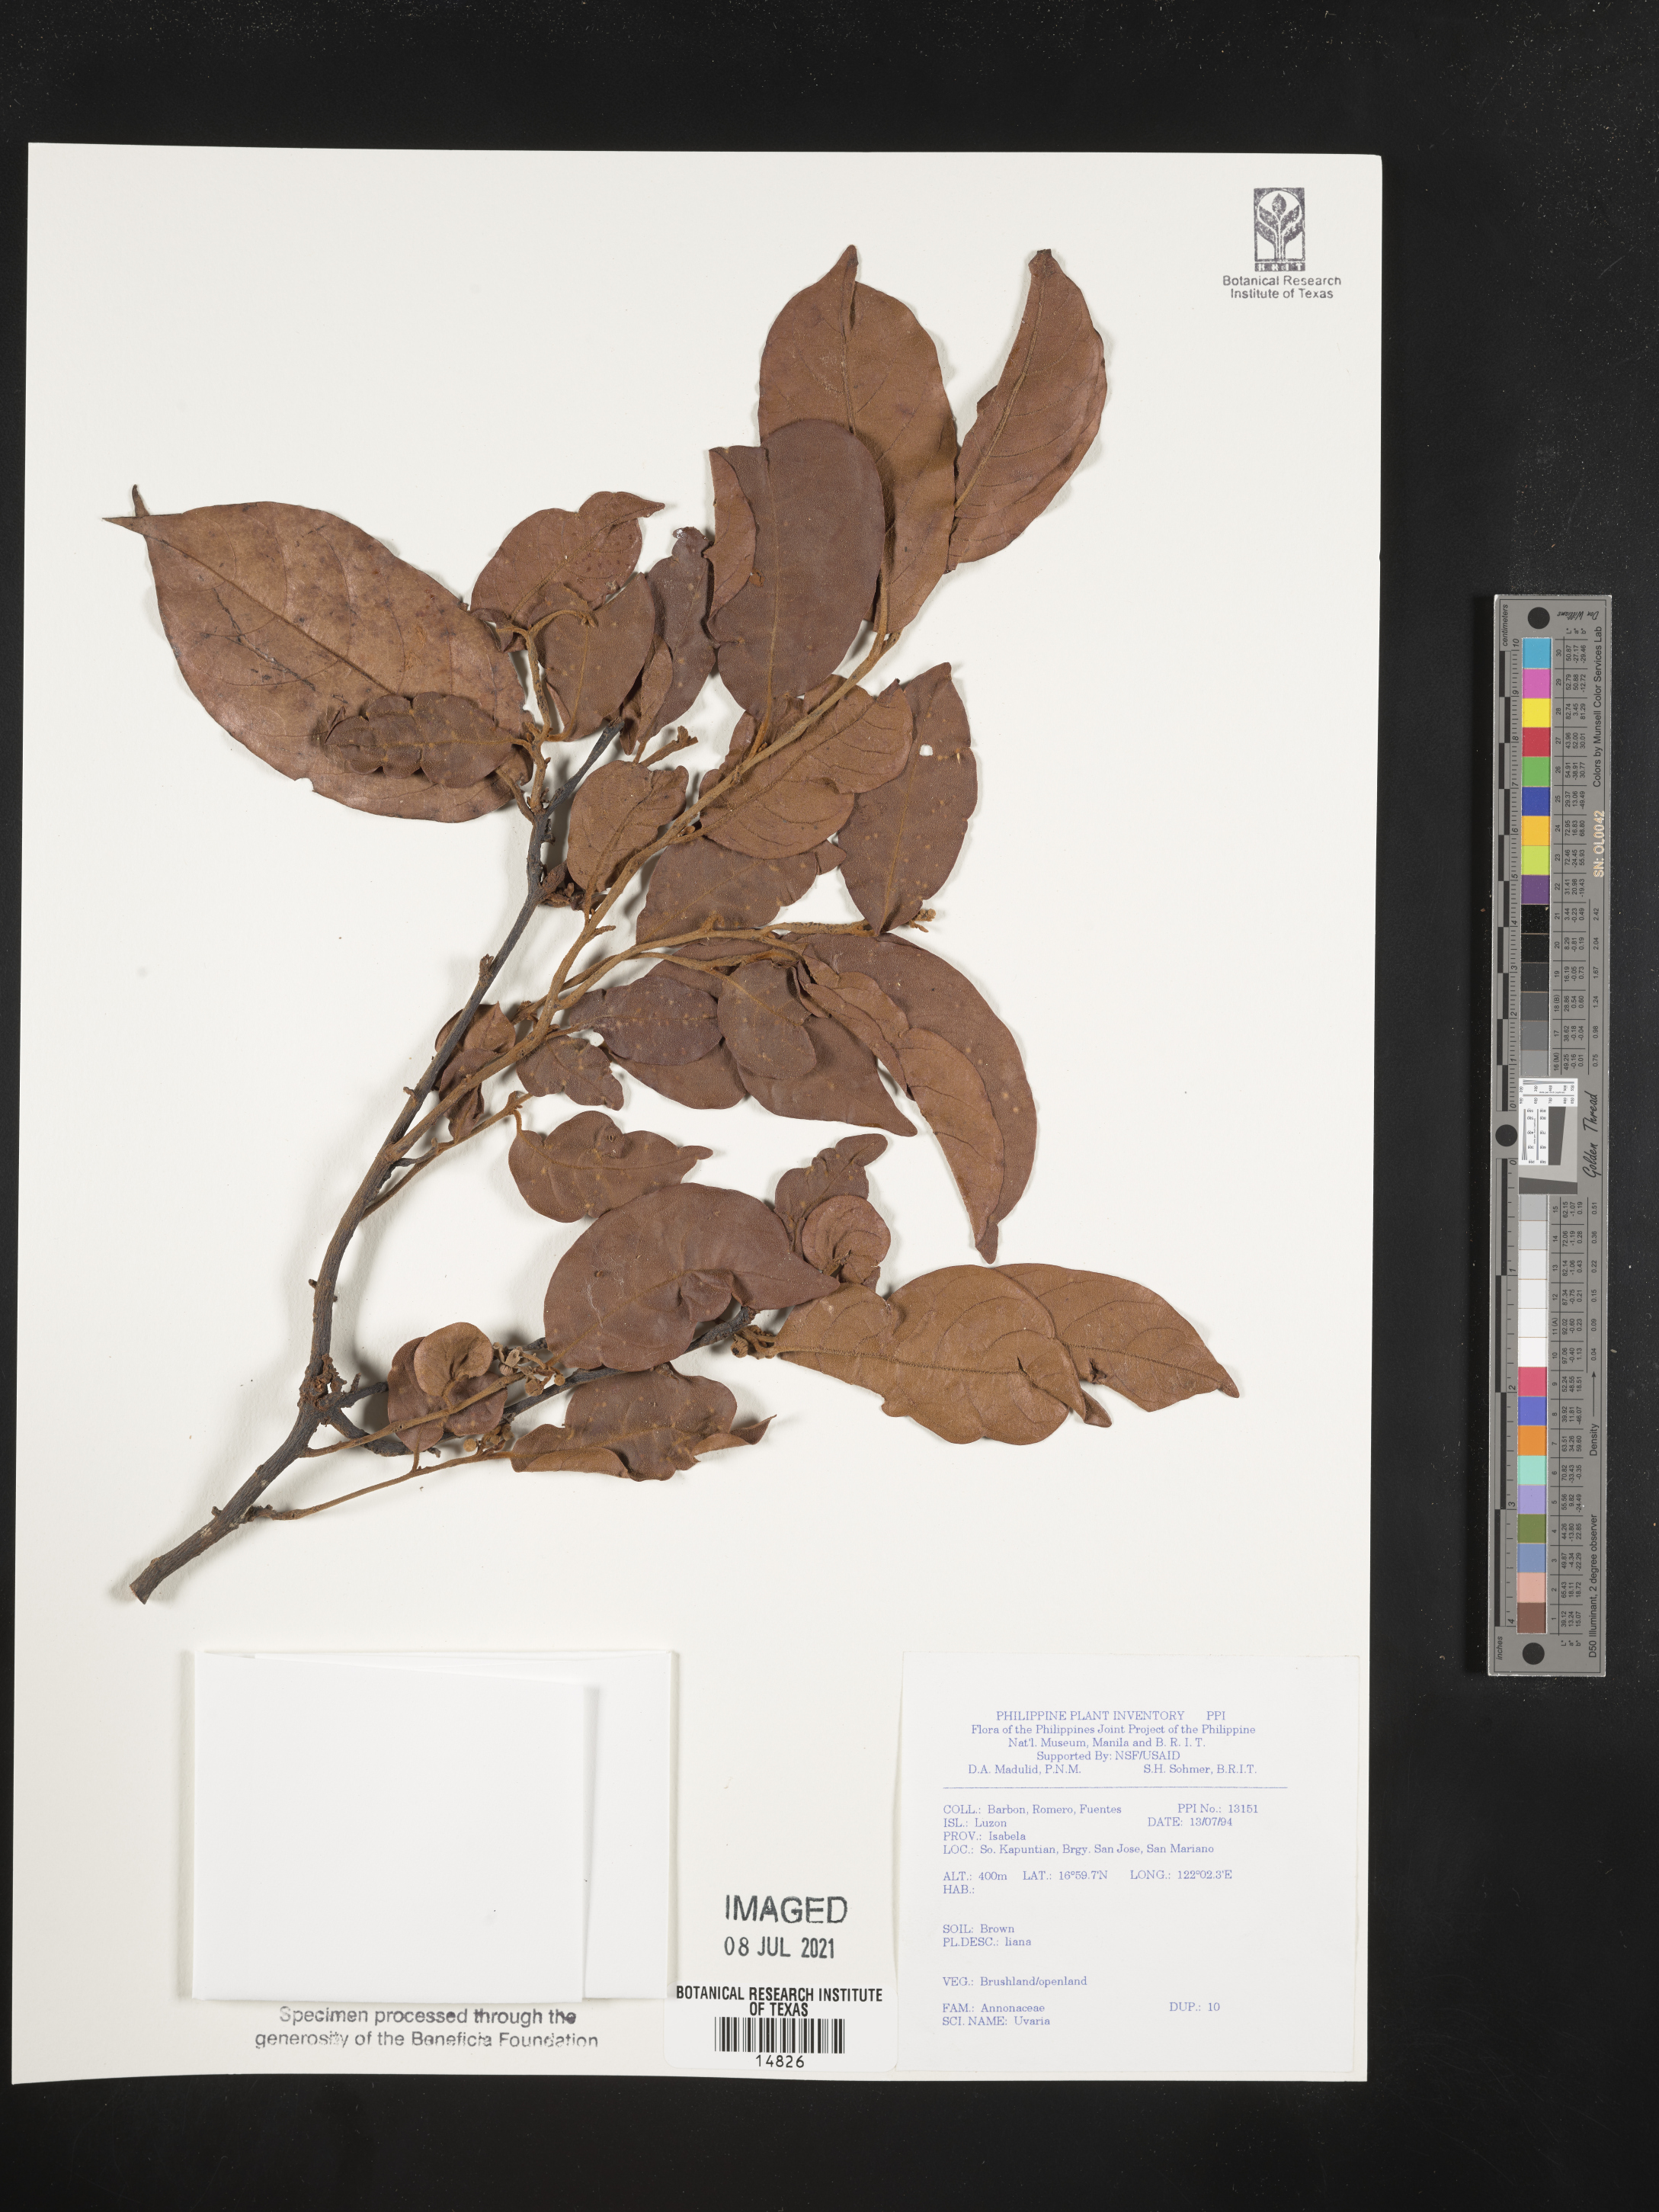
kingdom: Plantae
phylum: Tracheophyta
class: Magnoliopsida
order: Magnoliales
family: Annonaceae
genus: Uvaria
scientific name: Uvaria
